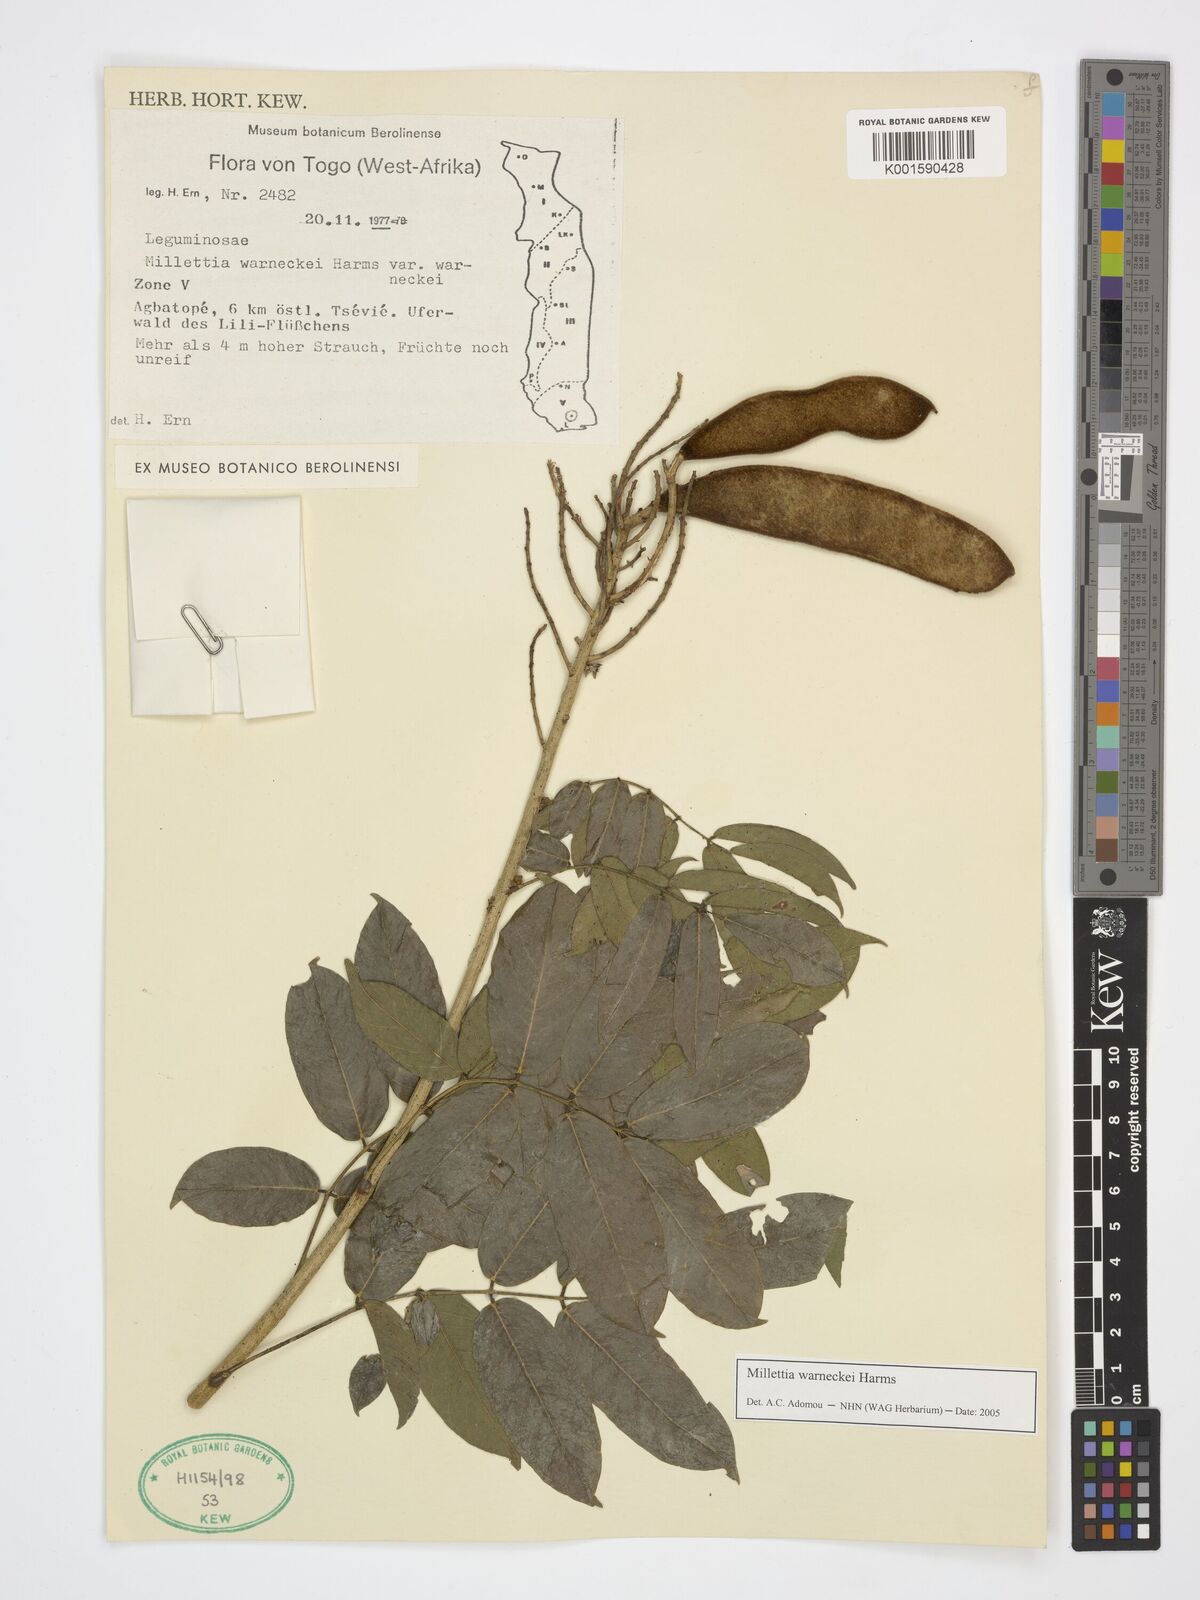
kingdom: Plantae
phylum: Tracheophyta
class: Magnoliopsida
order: Fabales
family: Fabaceae
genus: Millettia
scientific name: Millettia warneckei
